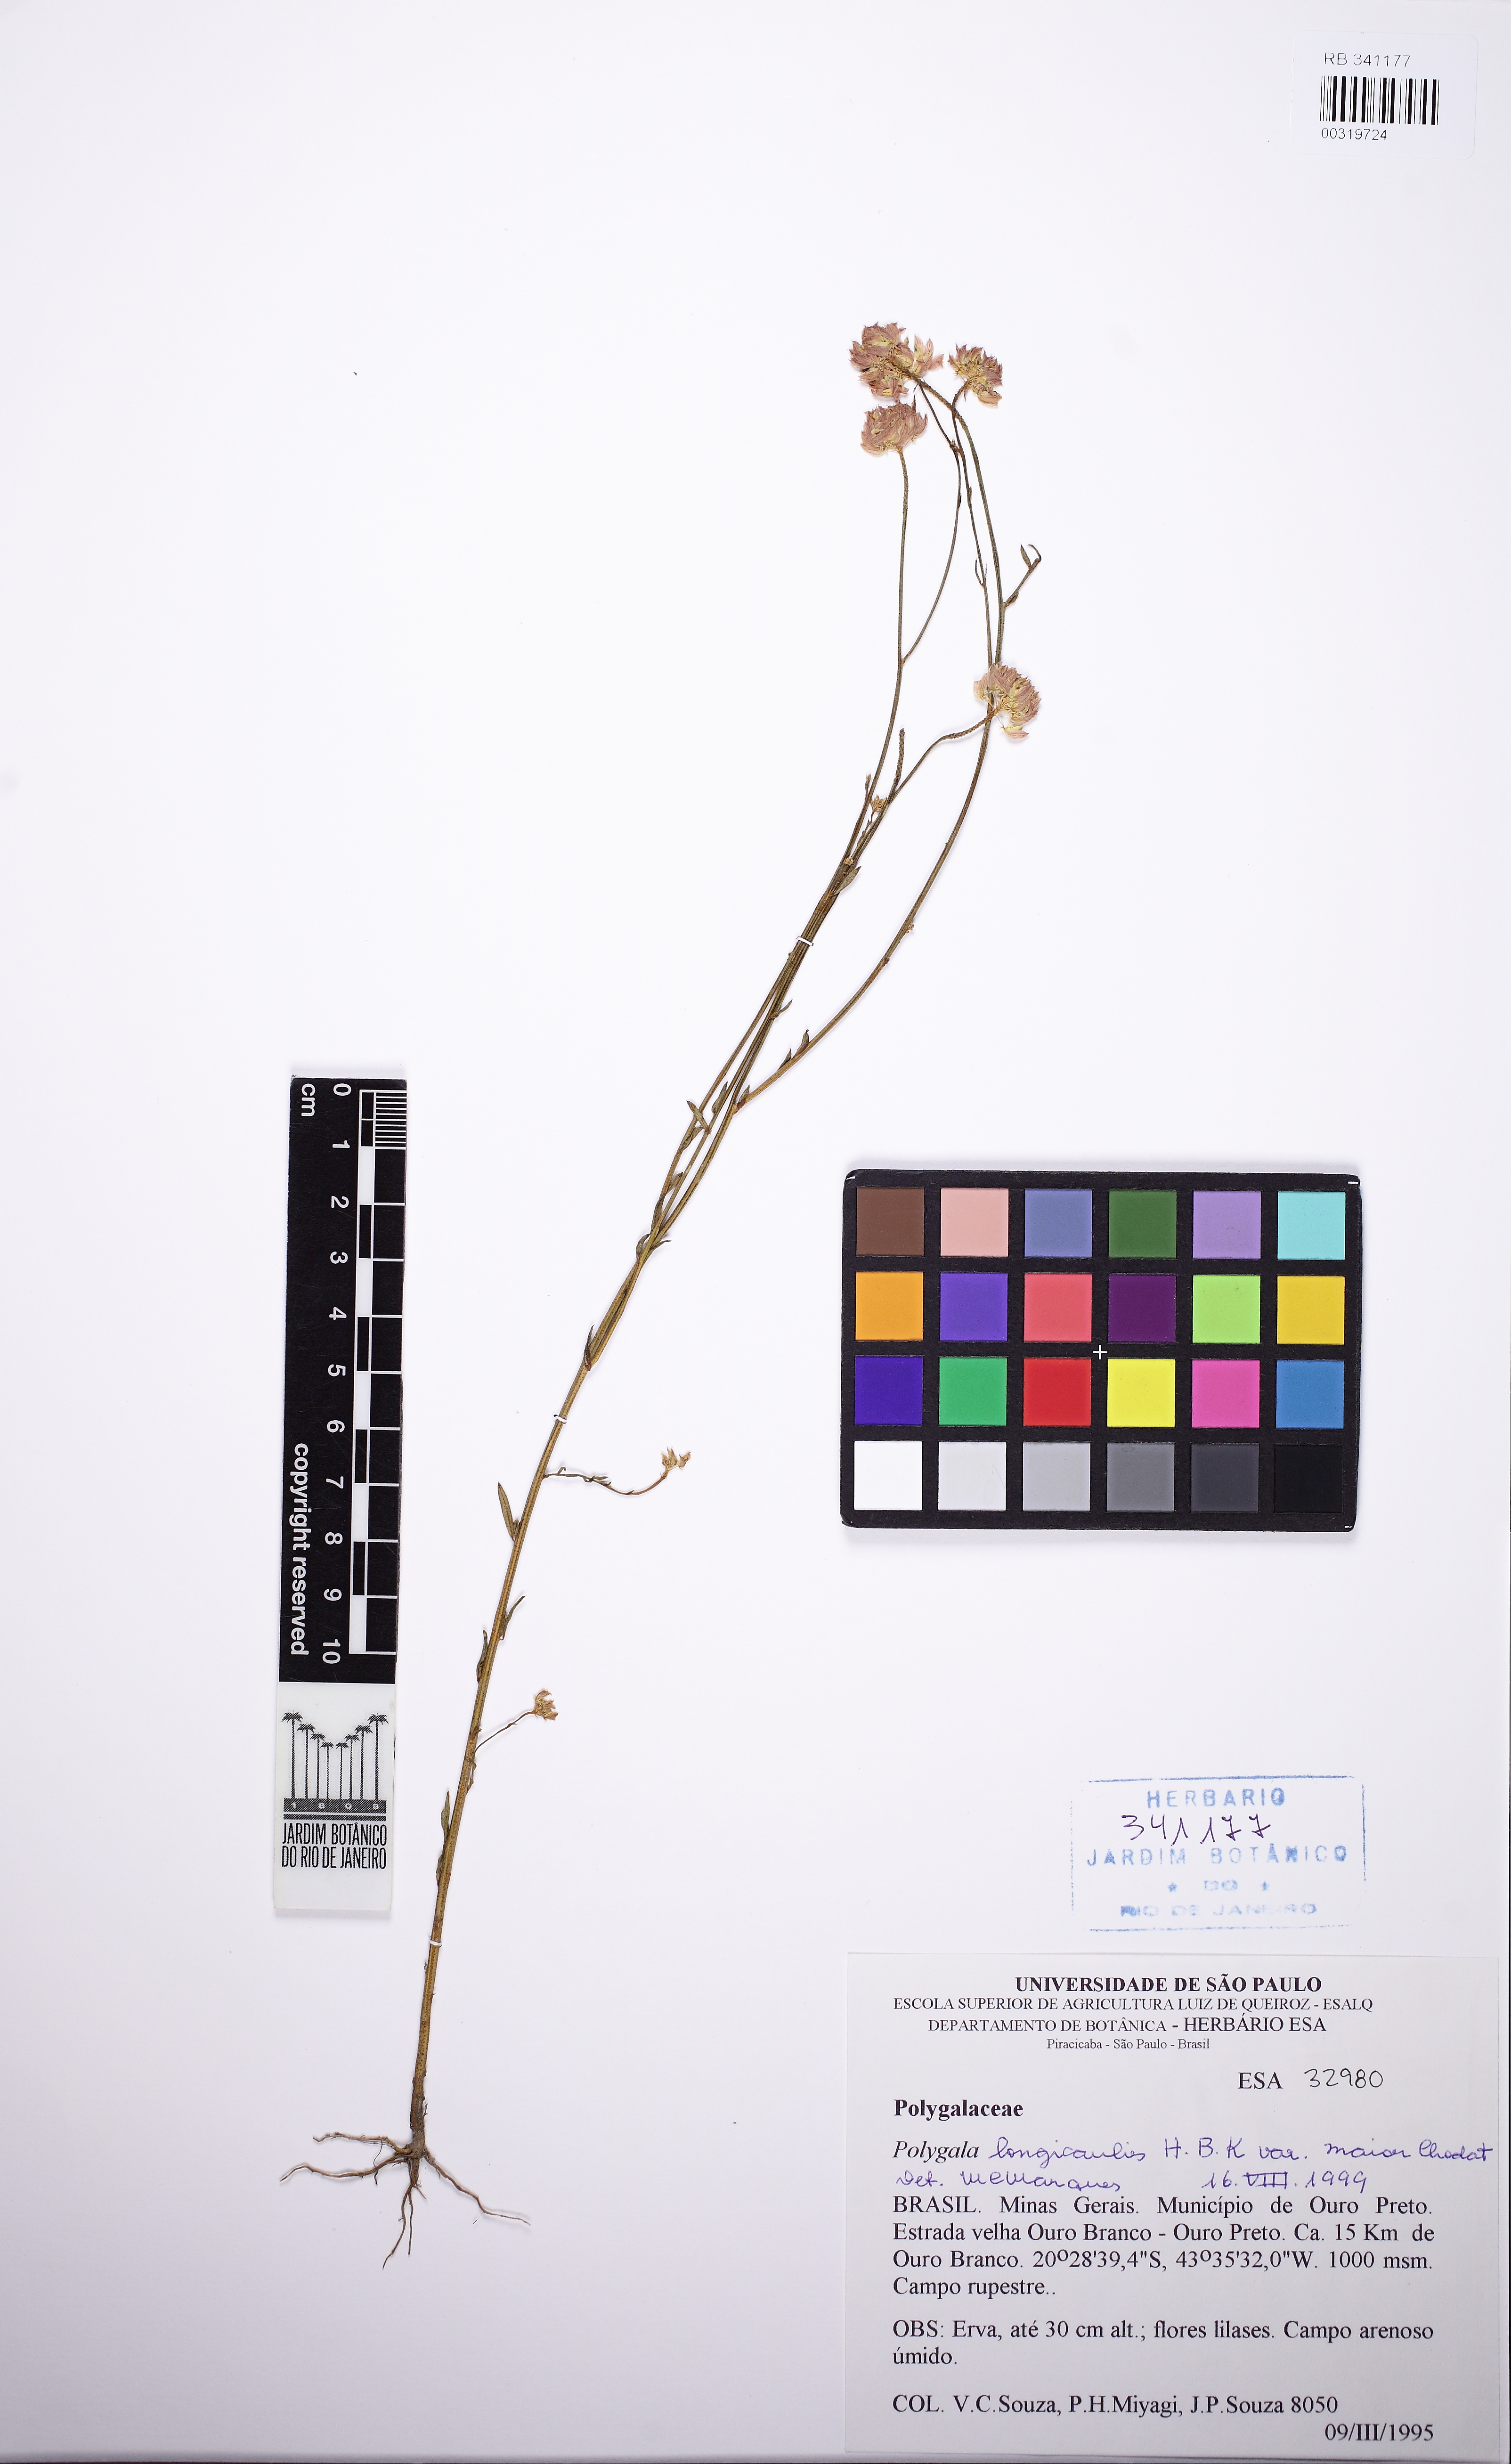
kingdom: Plantae
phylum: Tracheophyta
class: Magnoliopsida
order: Fabales
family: Polygalaceae
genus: Polygala
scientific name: Polygala longicaulis
